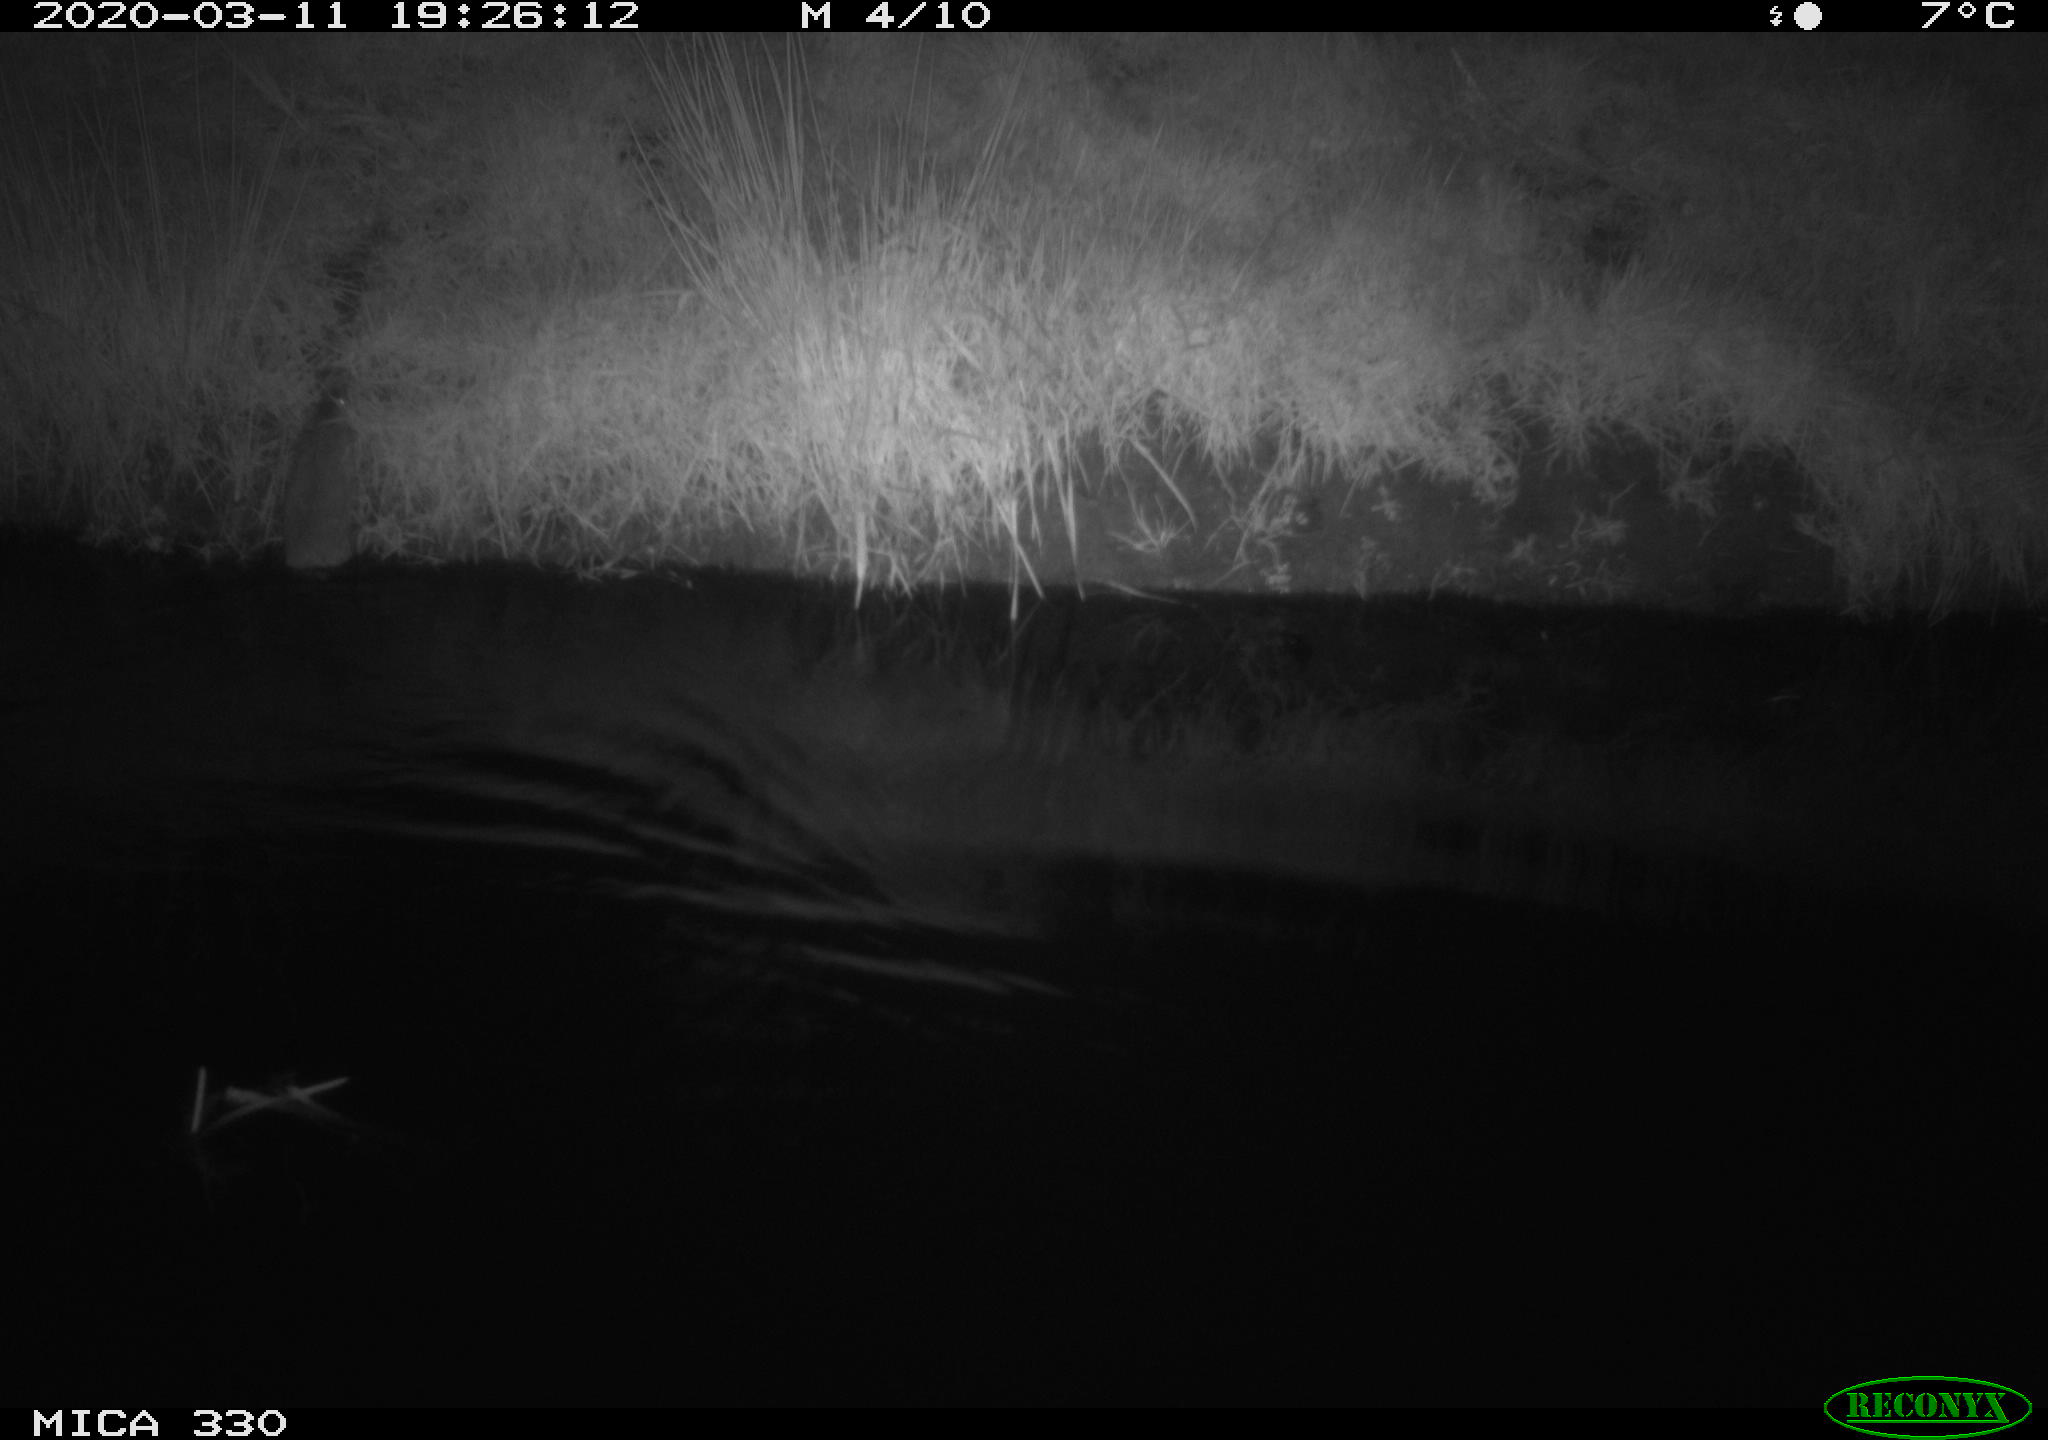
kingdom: Animalia
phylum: Chordata
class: Mammalia
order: Rodentia
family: Muridae
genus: Rattus
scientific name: Rattus norvegicus
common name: Brown rat
